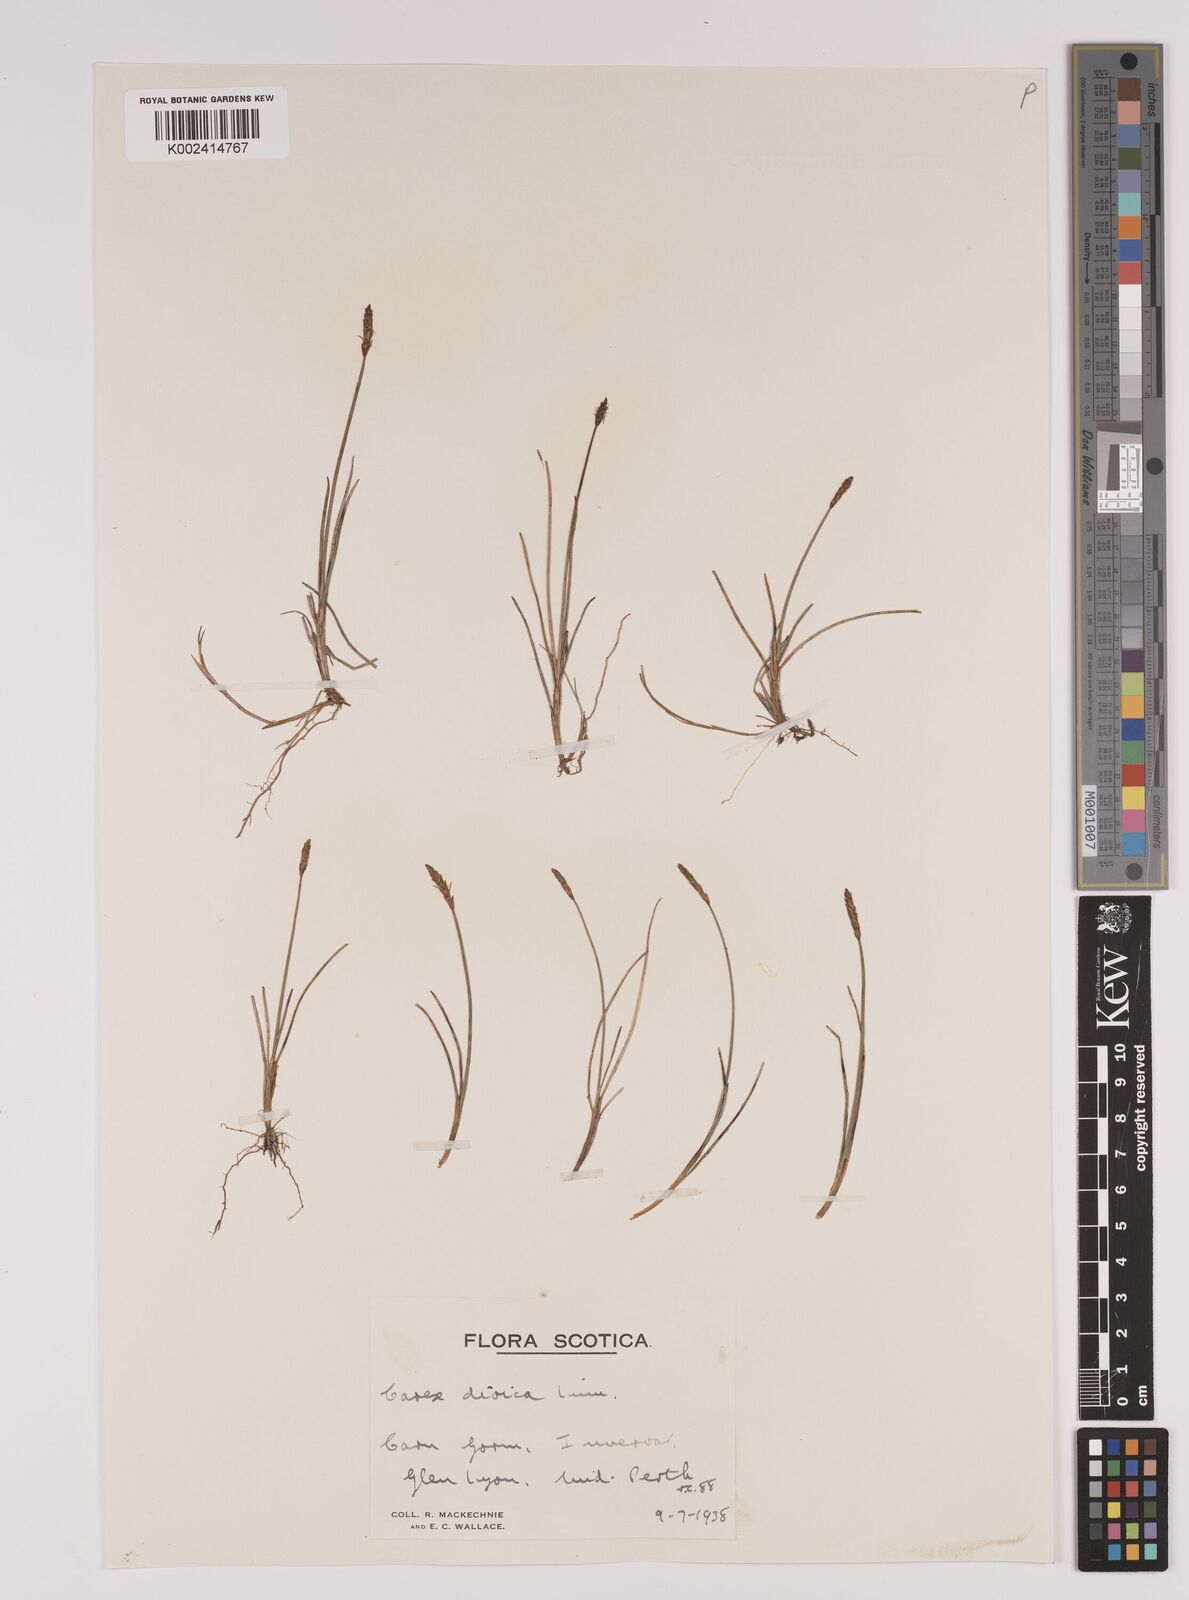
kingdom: Plantae
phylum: Tracheophyta
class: Liliopsida
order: Poales
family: Cyperaceae
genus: Carex
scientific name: Carex dioica
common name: Dioecious sedge
